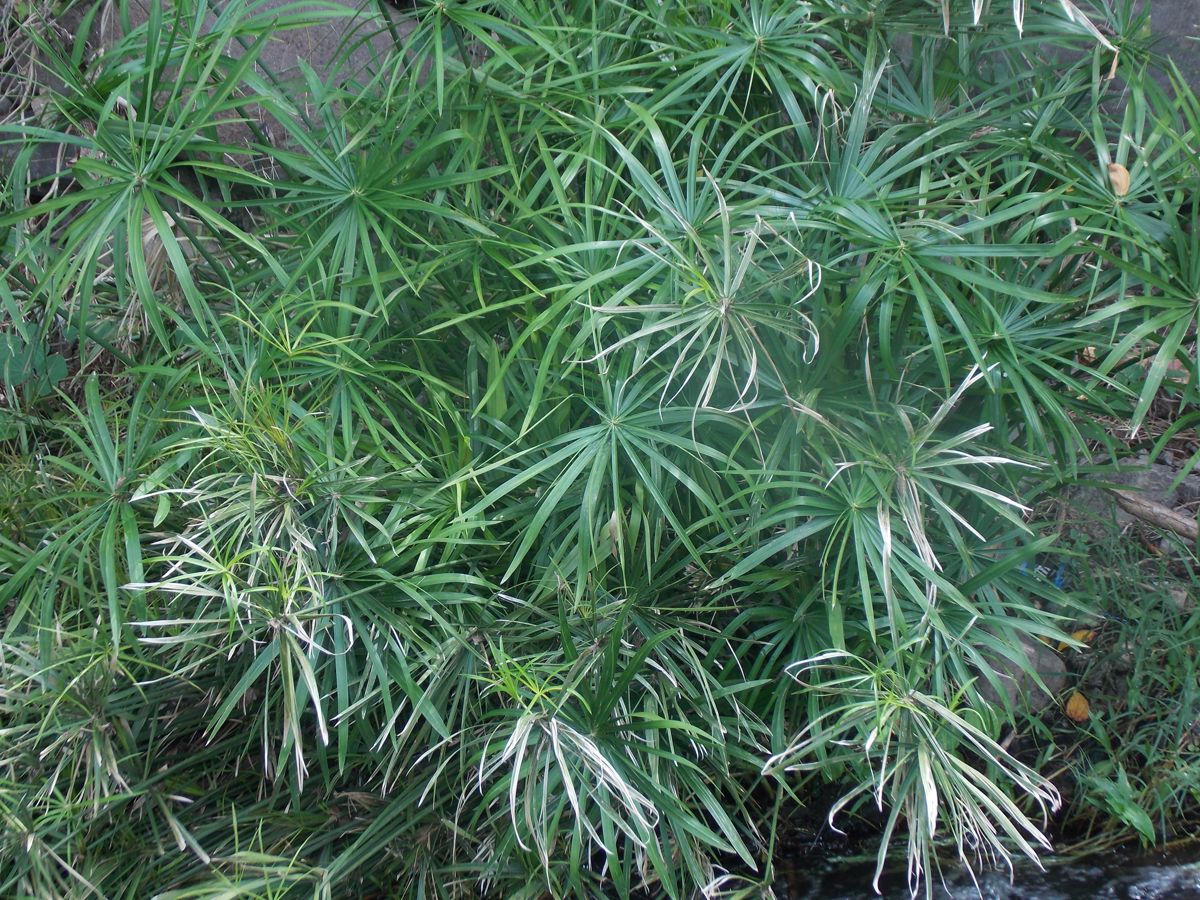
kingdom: Plantae
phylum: Tracheophyta
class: Liliopsida
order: Poales
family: Cyperaceae
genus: Cyperus
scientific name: Cyperus canus
